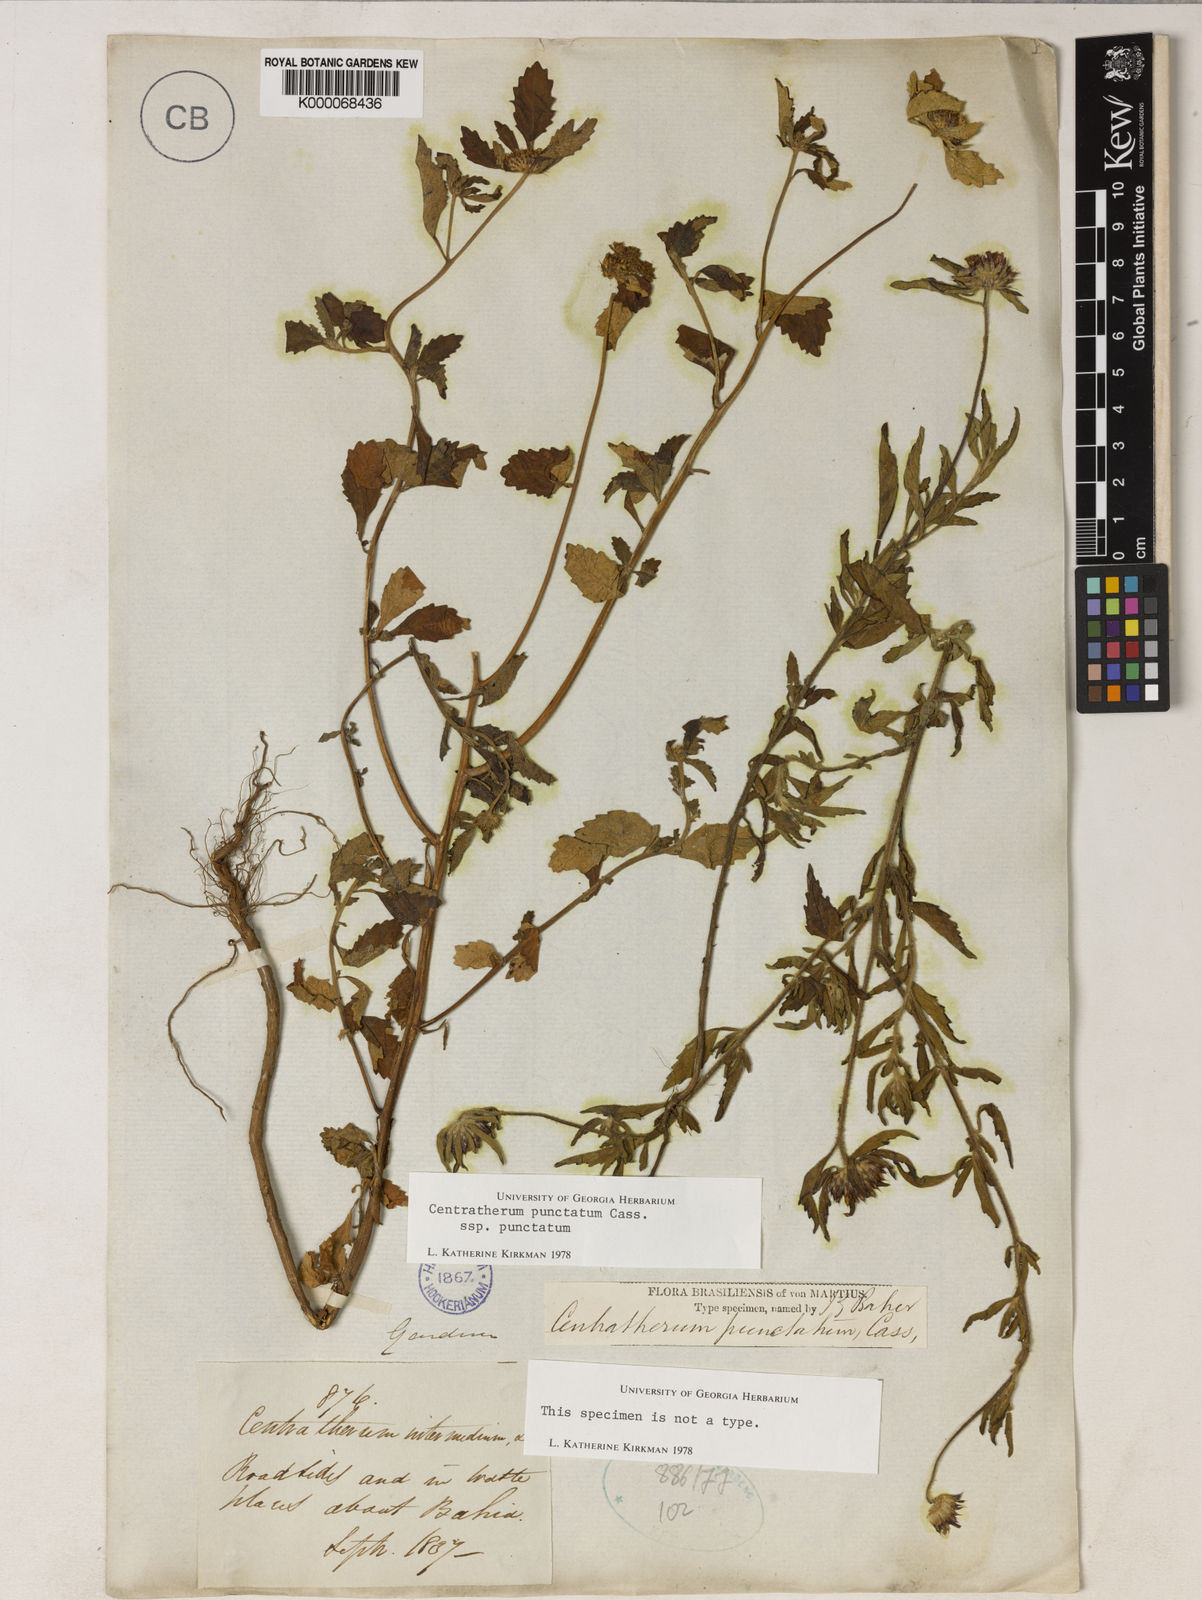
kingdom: Plantae
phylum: Tracheophyta
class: Magnoliopsida
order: Asterales
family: Asteraceae
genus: Centratherum
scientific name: Centratherum punctatum
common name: Larkdaisy
